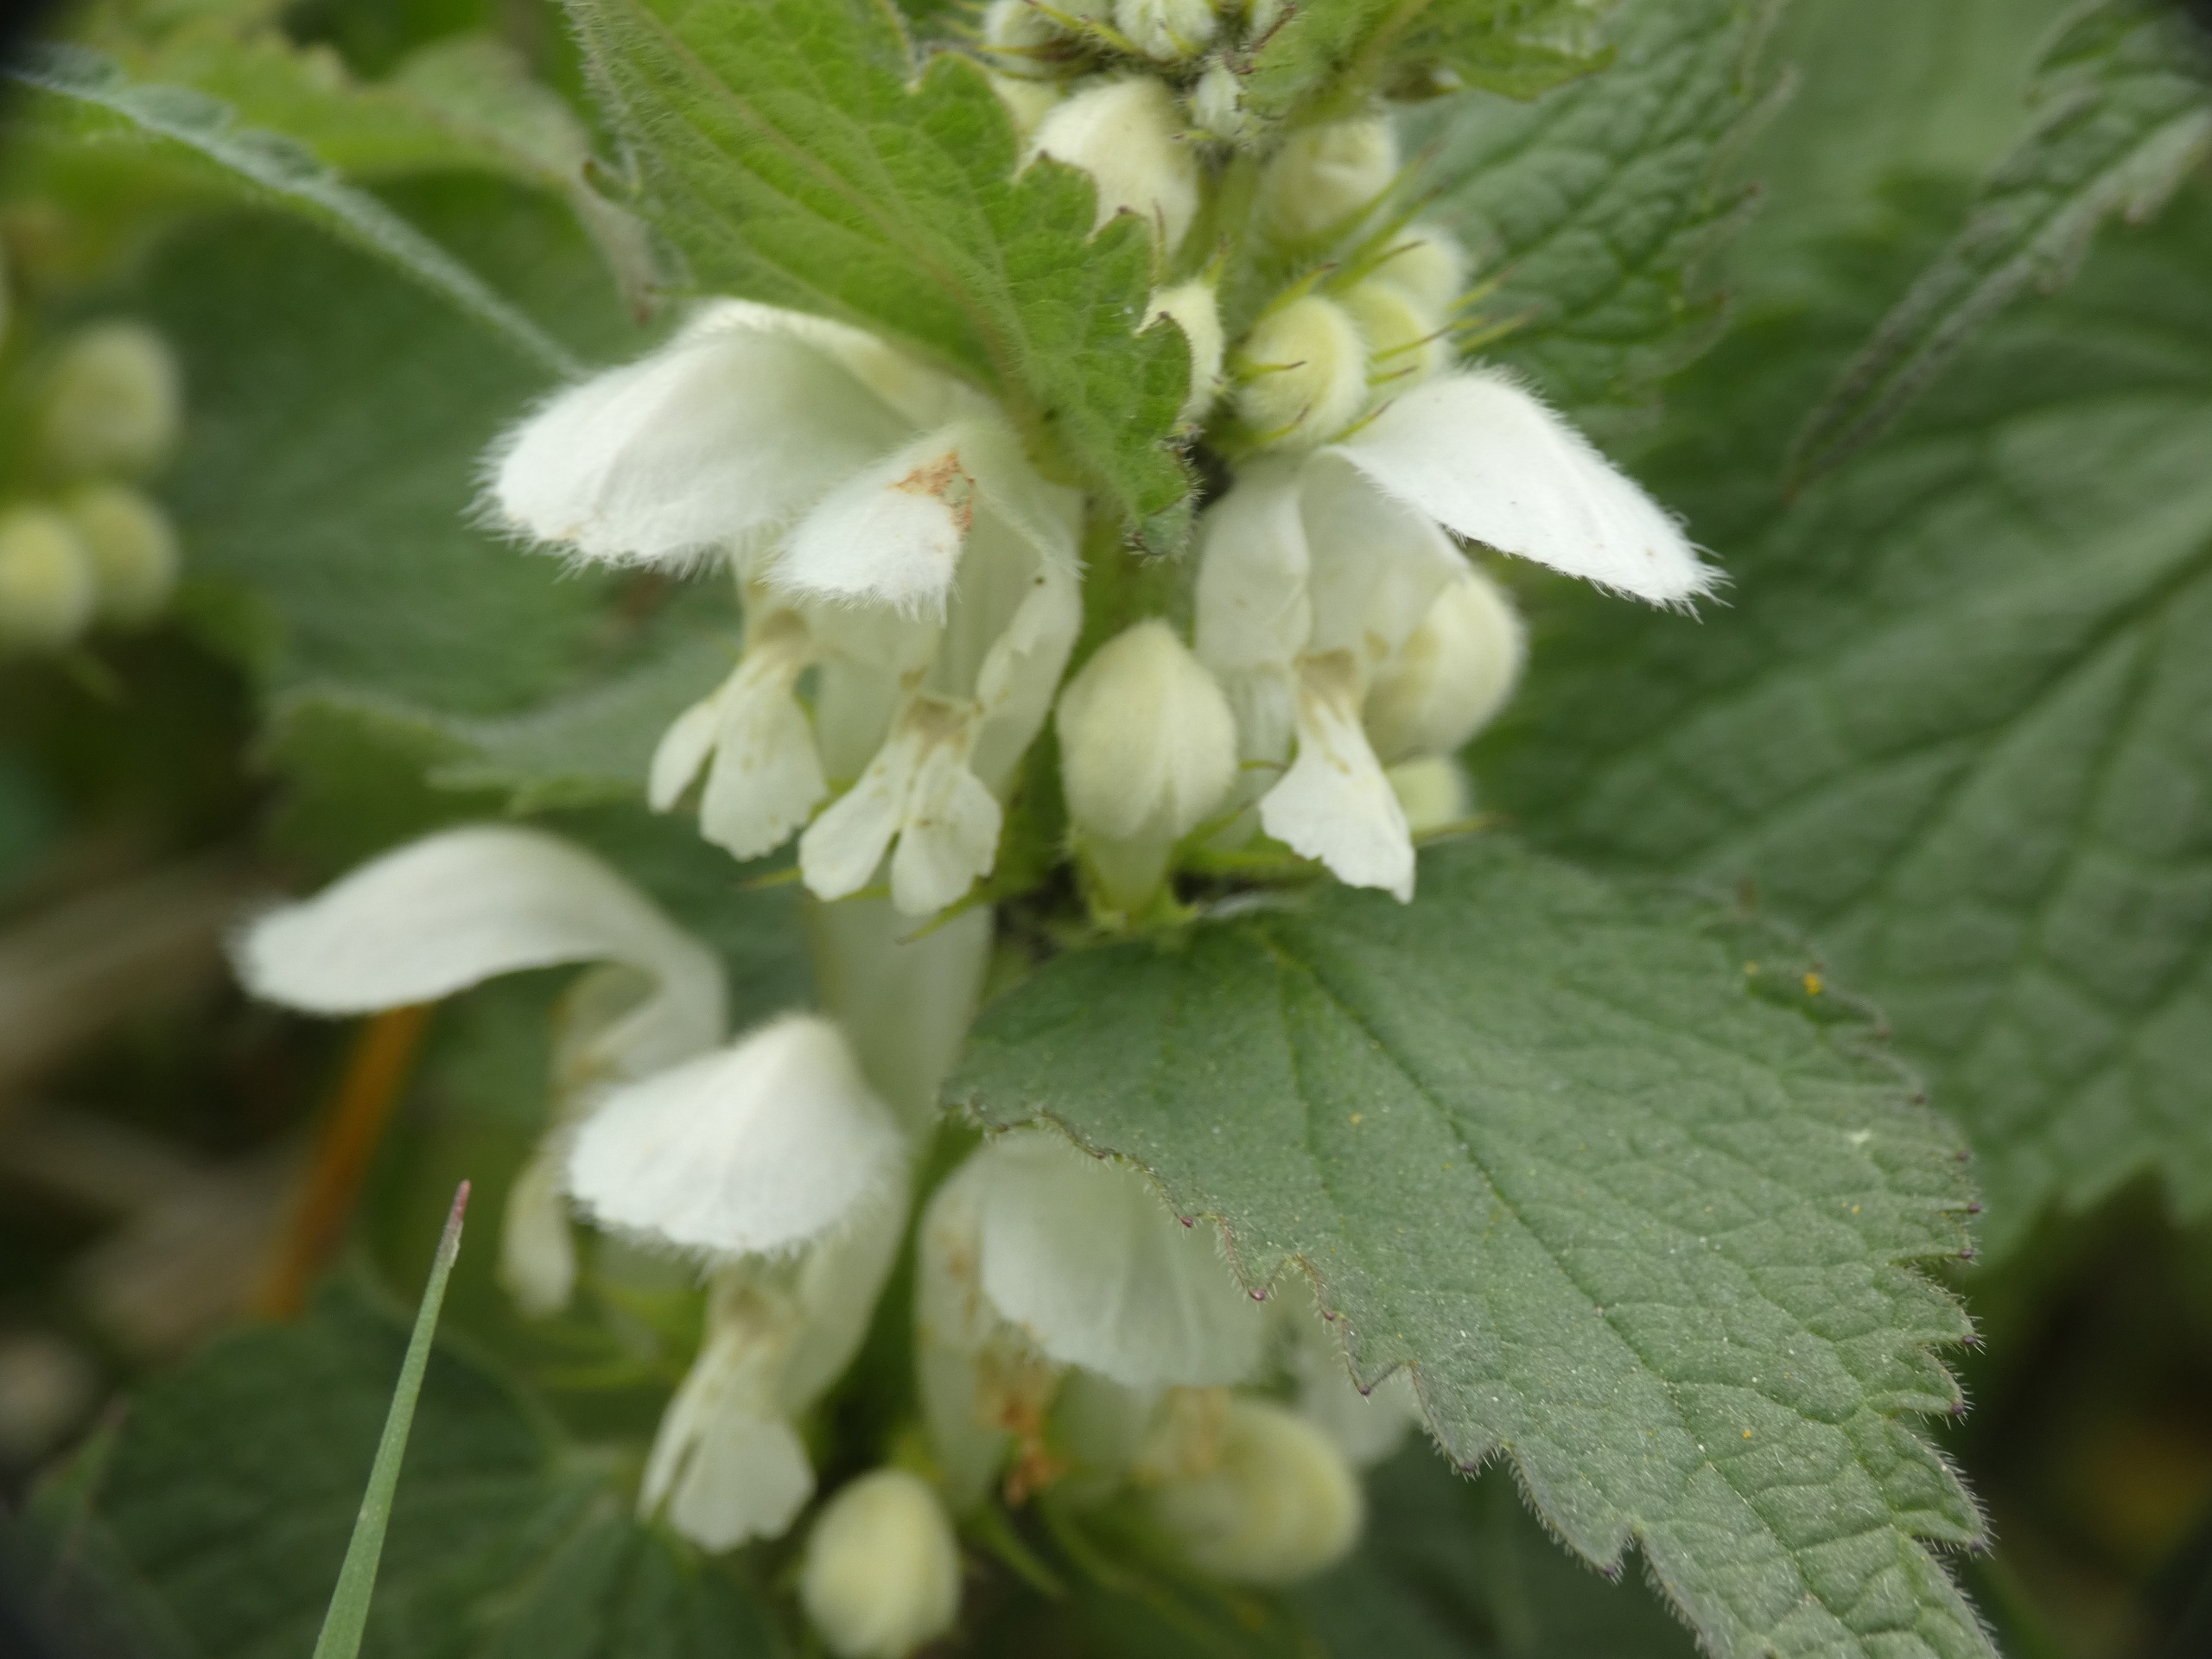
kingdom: Plantae
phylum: Tracheophyta
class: Magnoliopsida
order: Lamiales
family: Lamiaceae
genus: Lamium
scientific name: Lamium album
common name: Døvnælde
